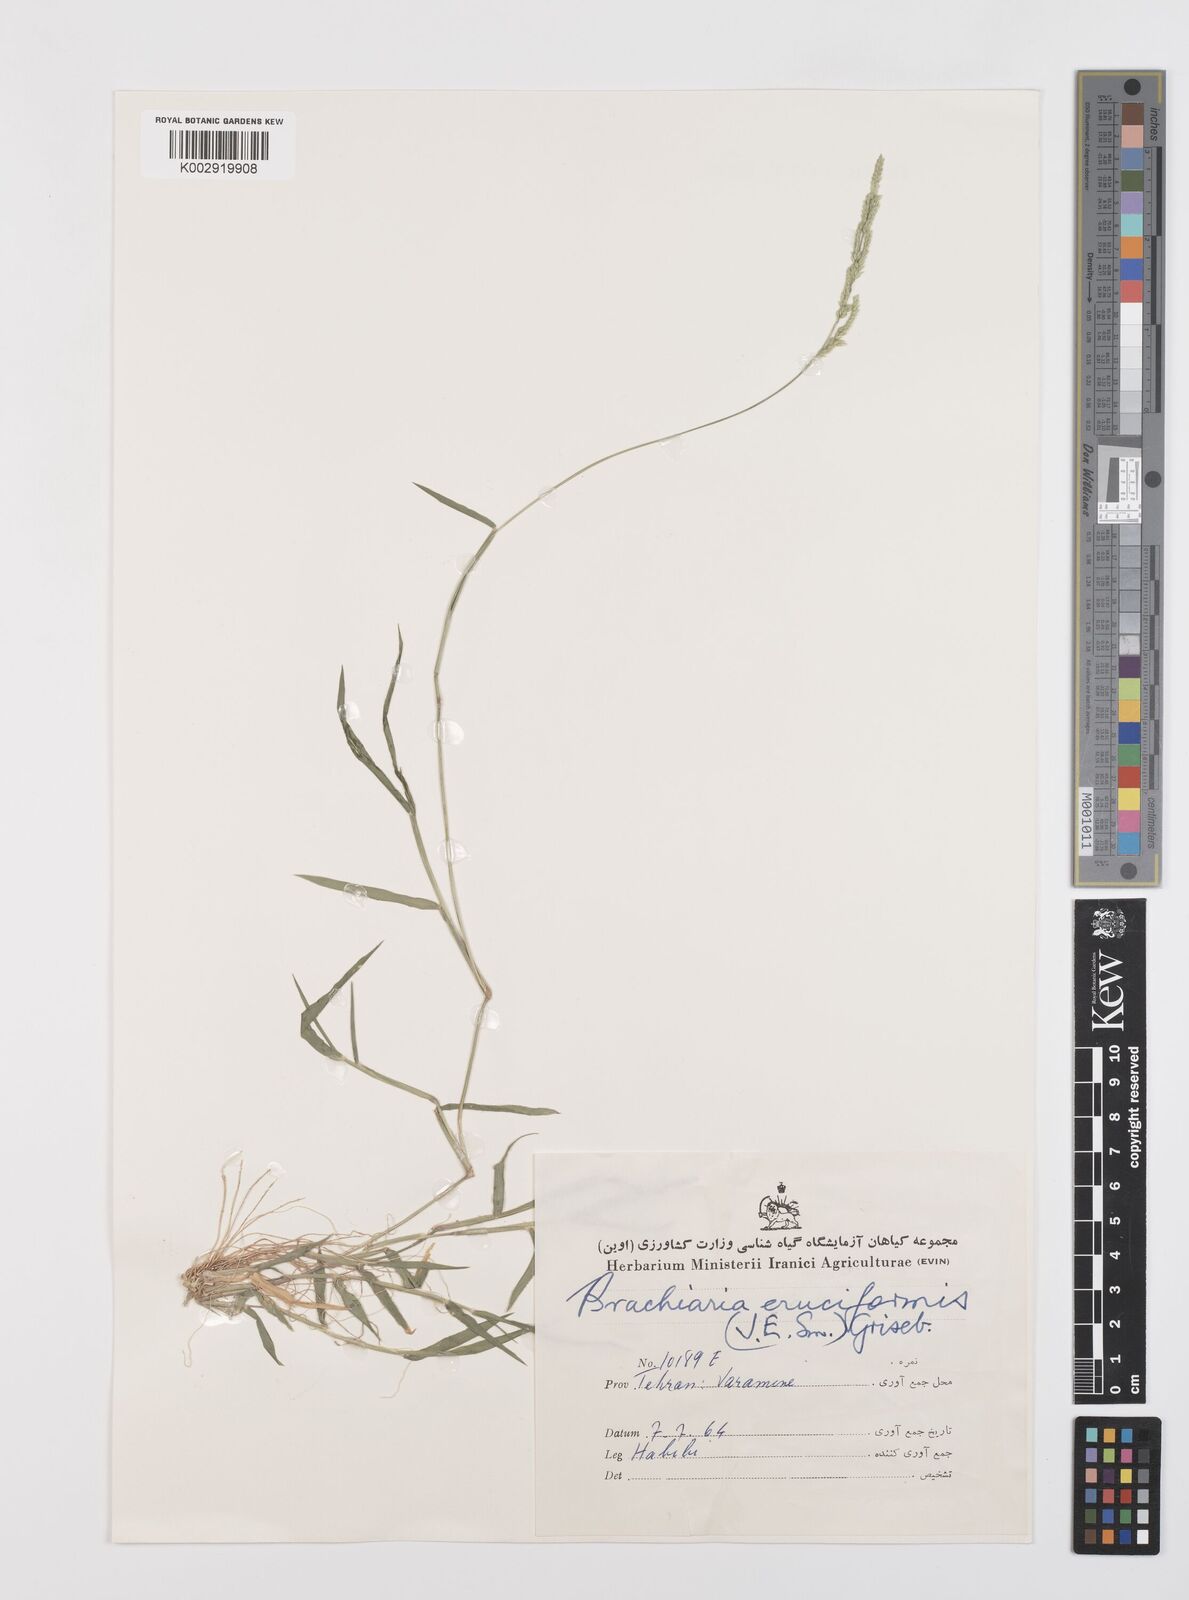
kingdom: Plantae
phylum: Tracheophyta
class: Liliopsida
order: Poales
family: Poaceae
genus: Moorochloa
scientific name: Moorochloa eruciformis
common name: Sweet signalgrass
